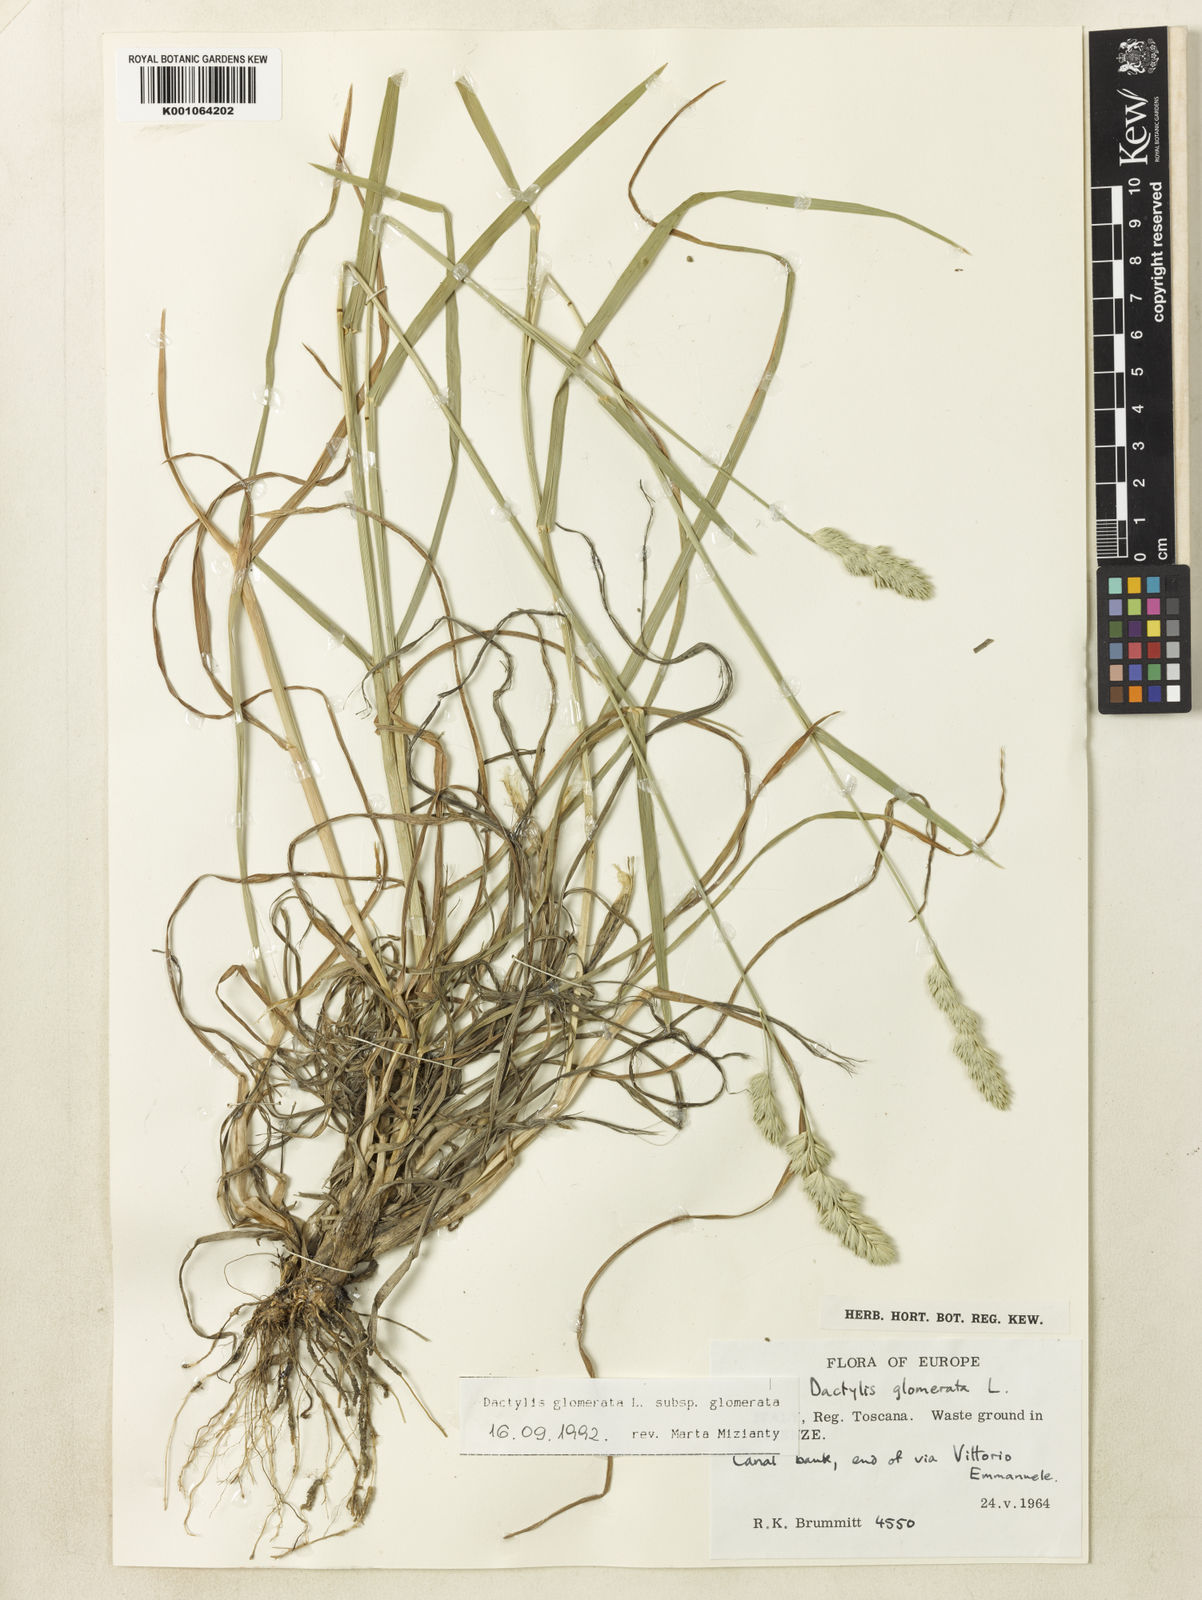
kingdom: Plantae
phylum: Tracheophyta
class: Liliopsida
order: Poales
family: Poaceae
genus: Dactylis
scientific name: Dactylis glomerata
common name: Orchardgrass
